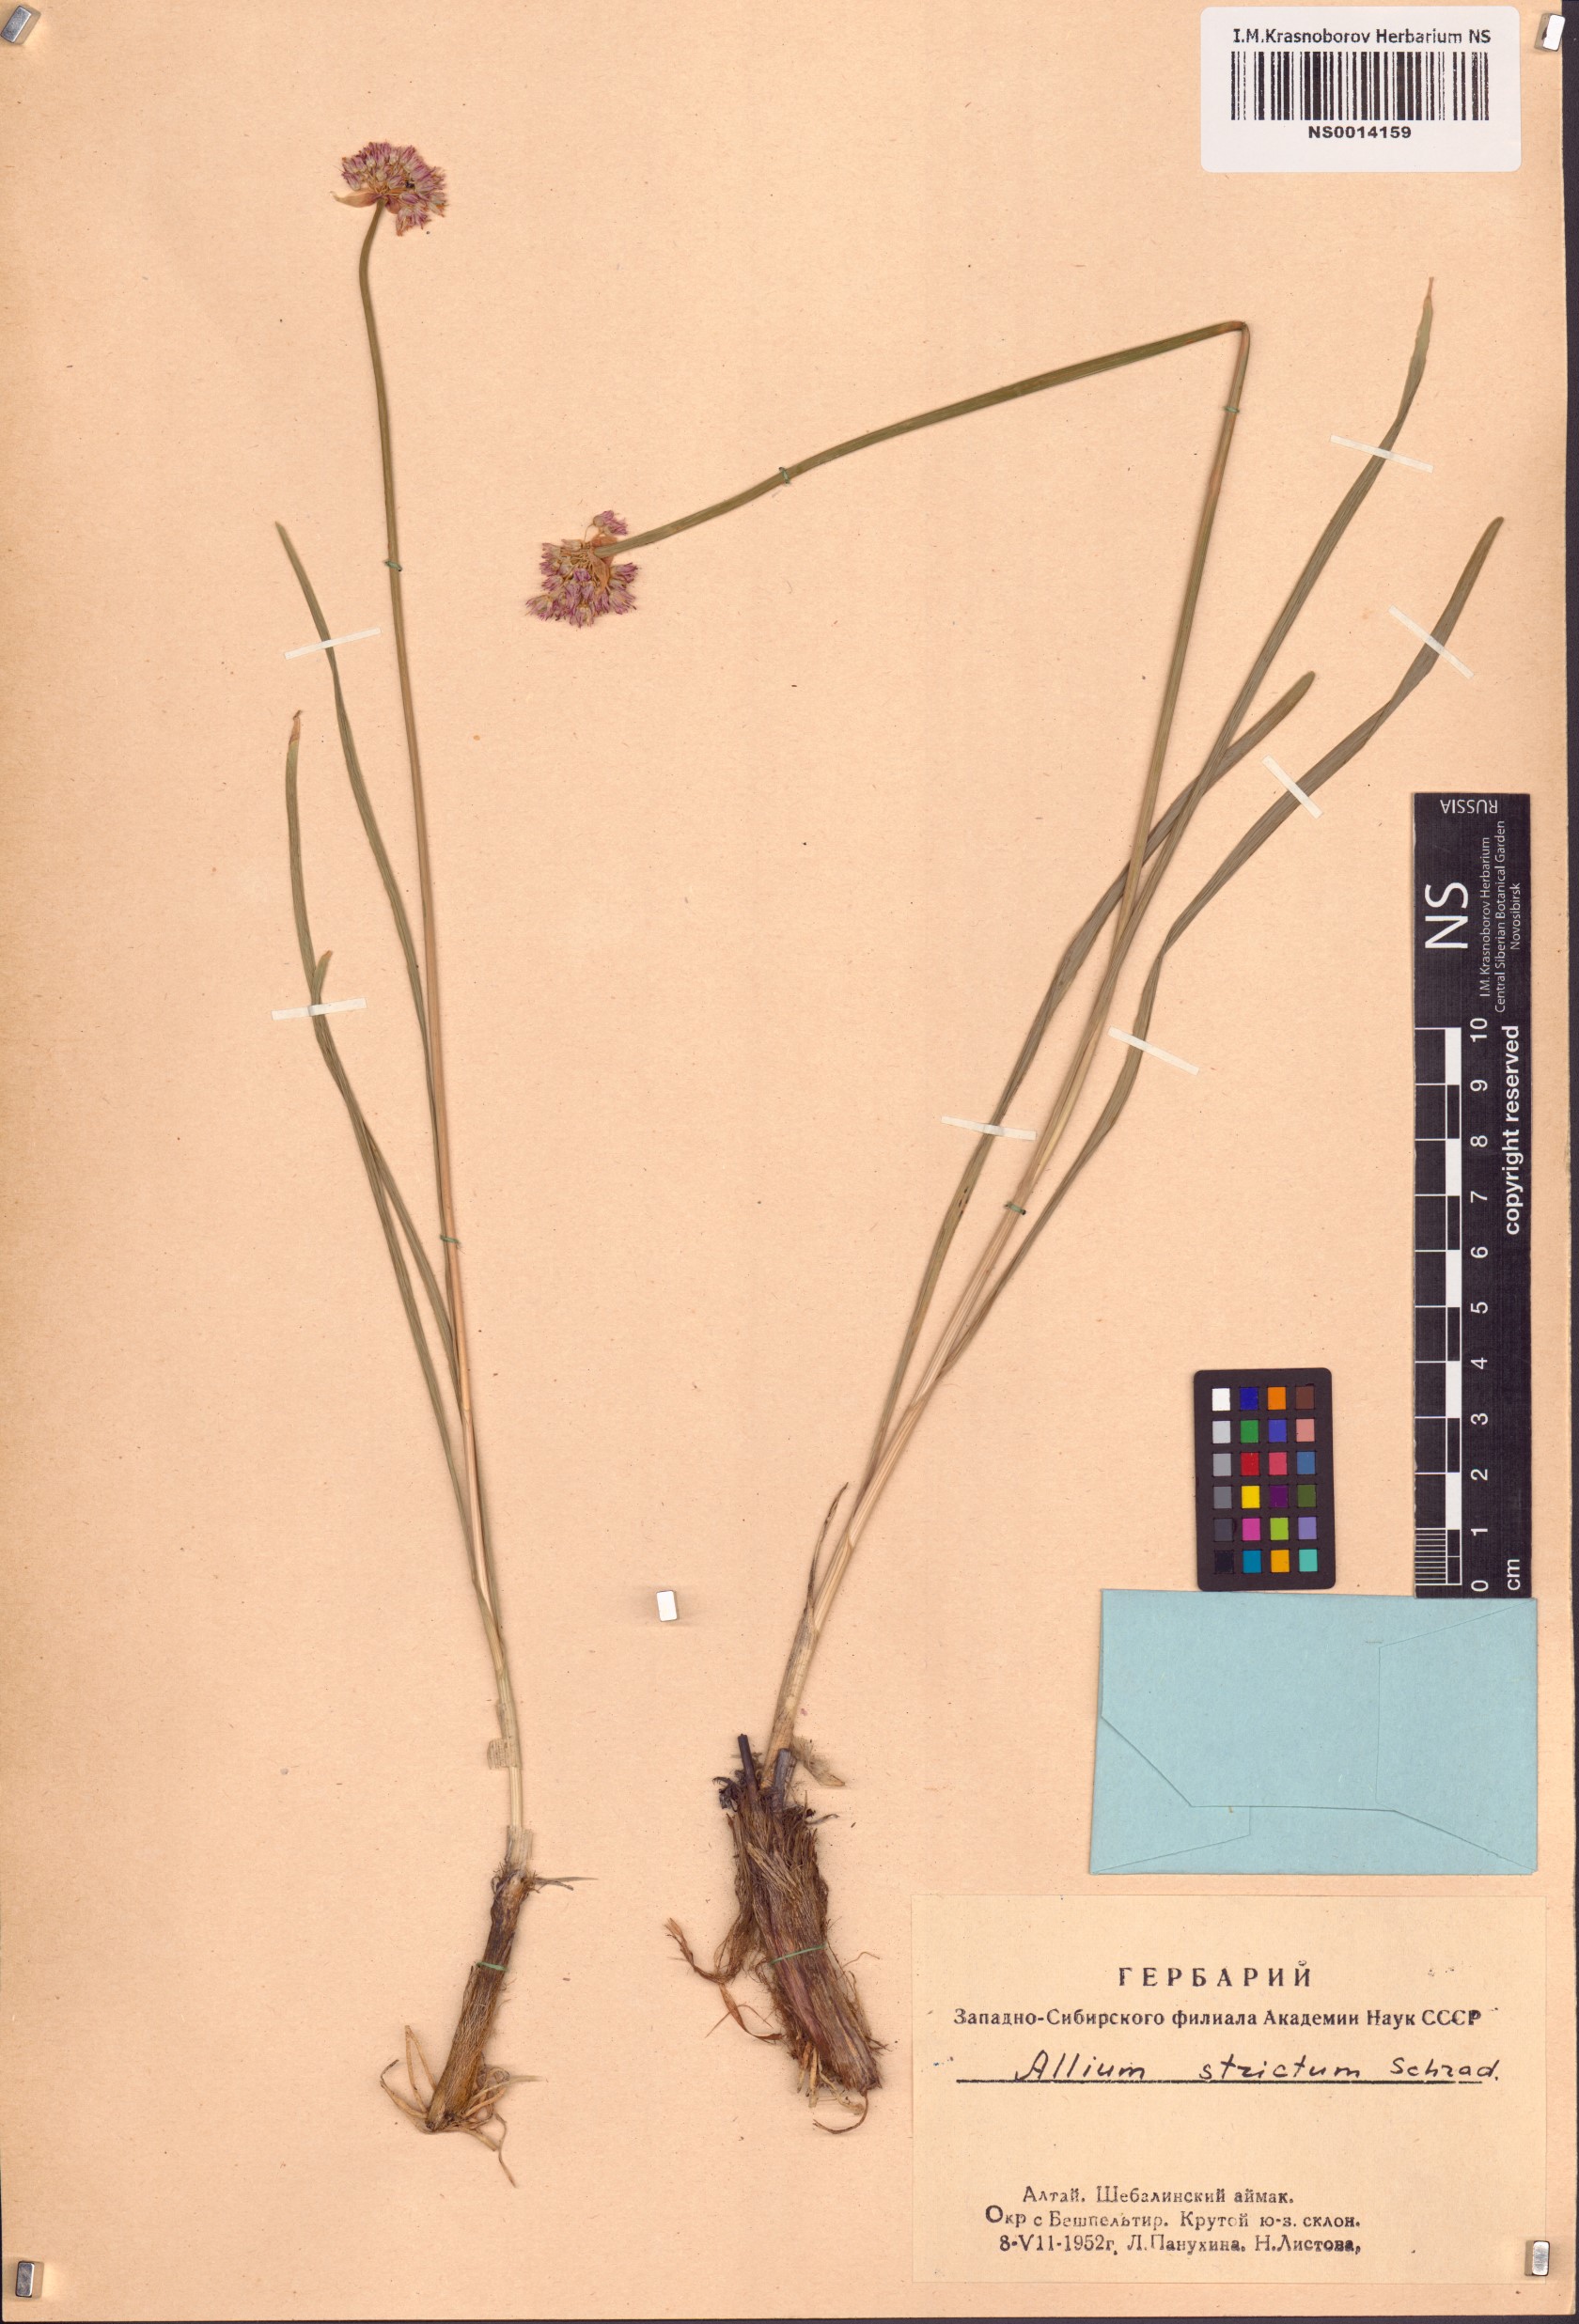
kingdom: Plantae
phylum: Tracheophyta
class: Liliopsida
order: Asparagales
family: Amaryllidaceae
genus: Allium
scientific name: Allium strictum
